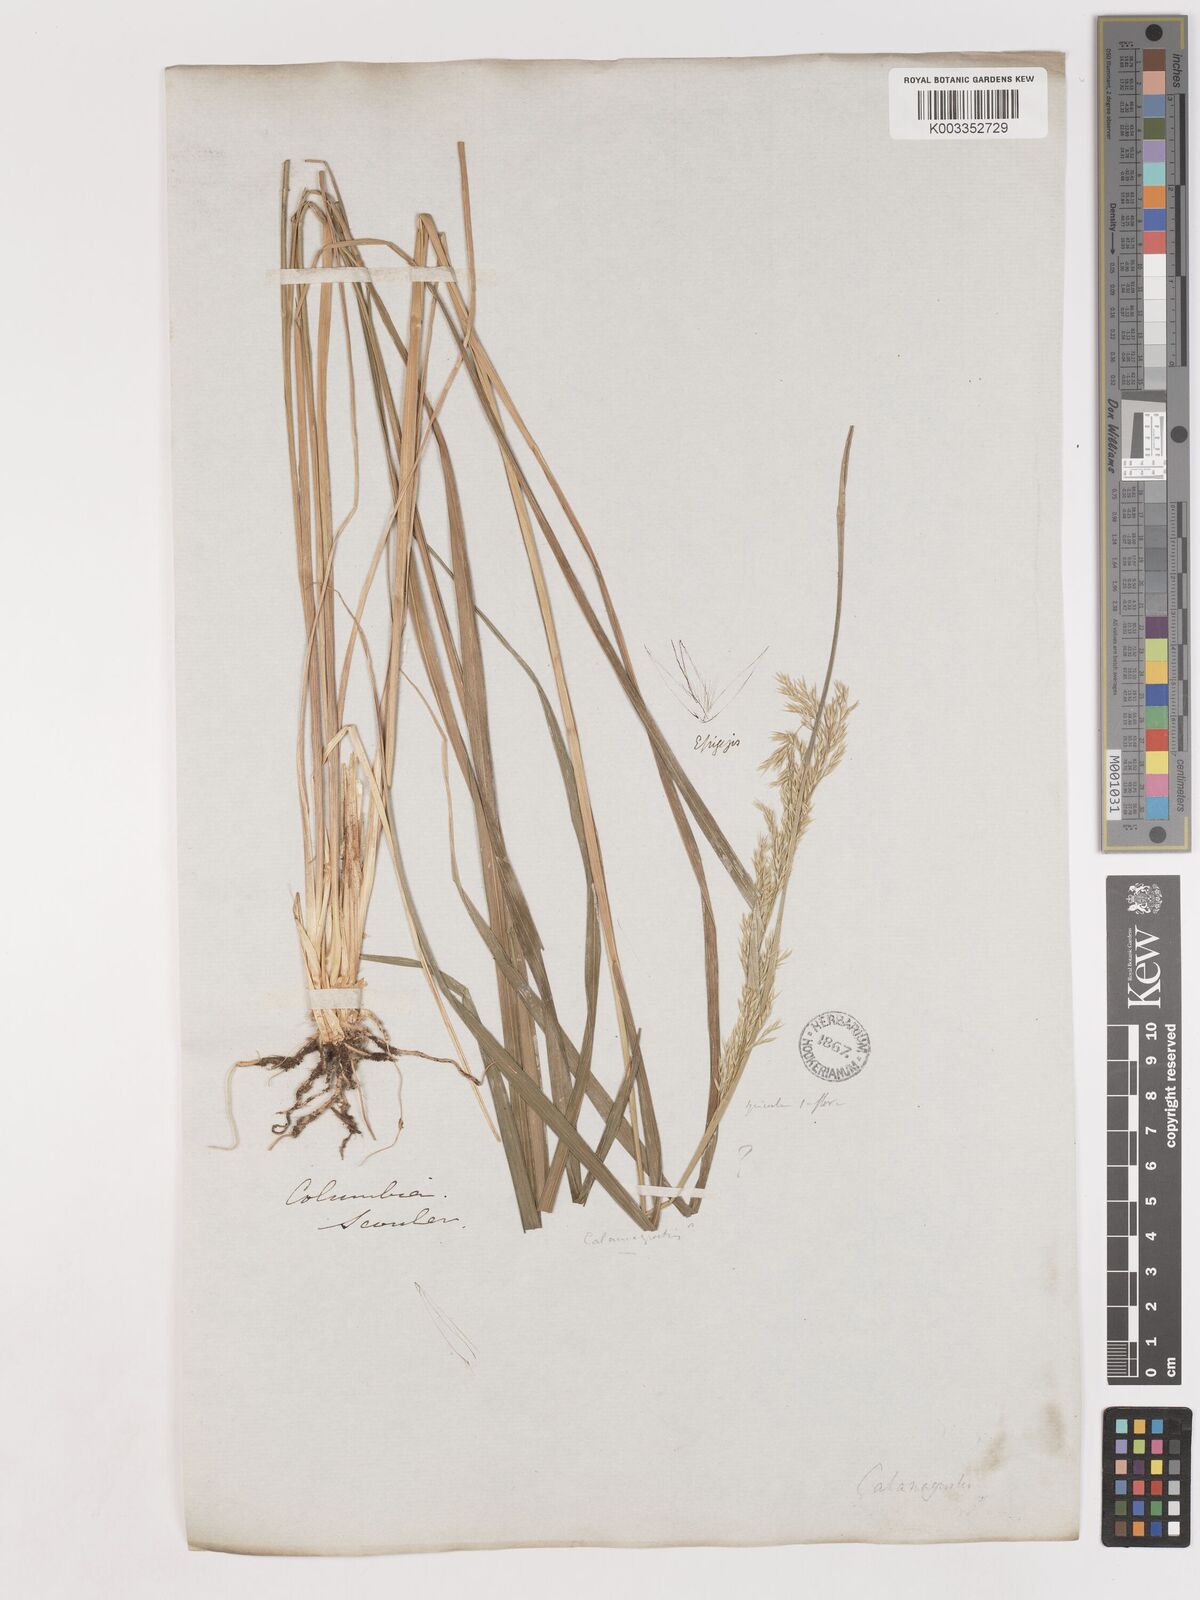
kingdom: Plantae
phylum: Tracheophyta
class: Liliopsida
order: Poales
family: Poaceae
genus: Calamagrostis
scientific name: Calamagrostis canadensis
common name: Canada bluejoint
